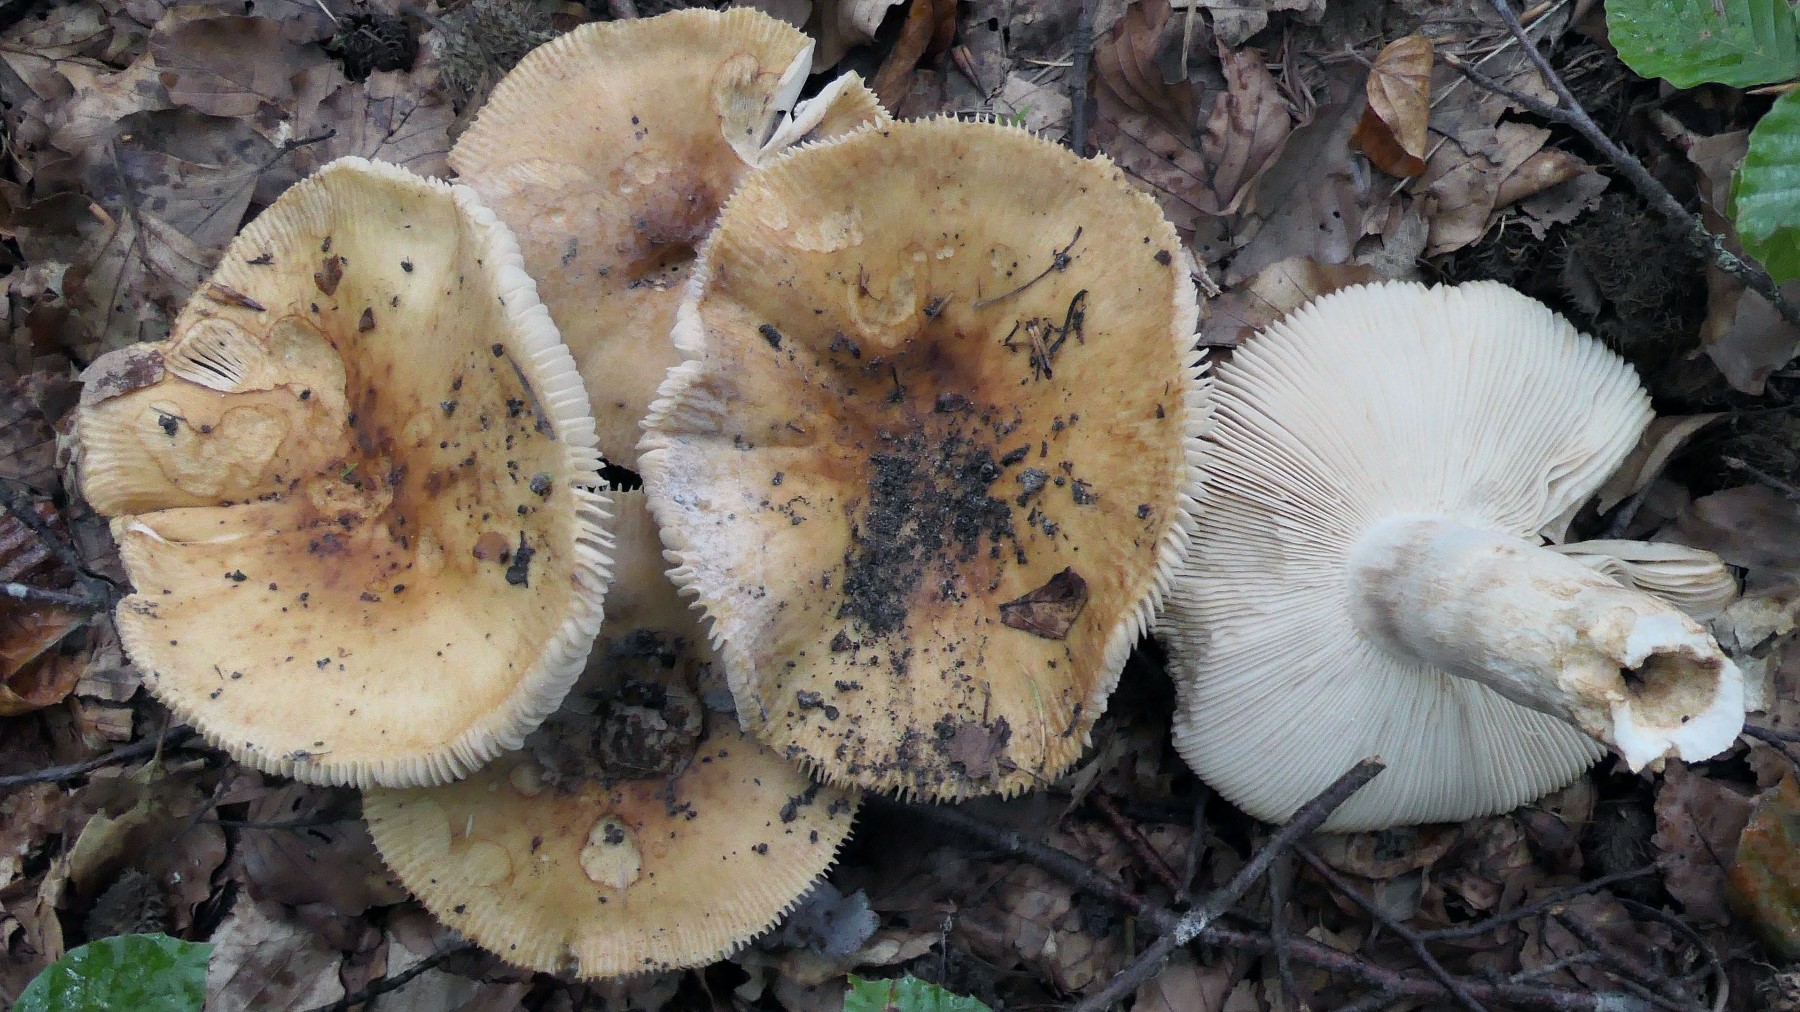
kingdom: Fungi
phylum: Basidiomycota
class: Agaricomycetes
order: Russulales
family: Russulaceae
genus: Russula
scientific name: Russula grata
